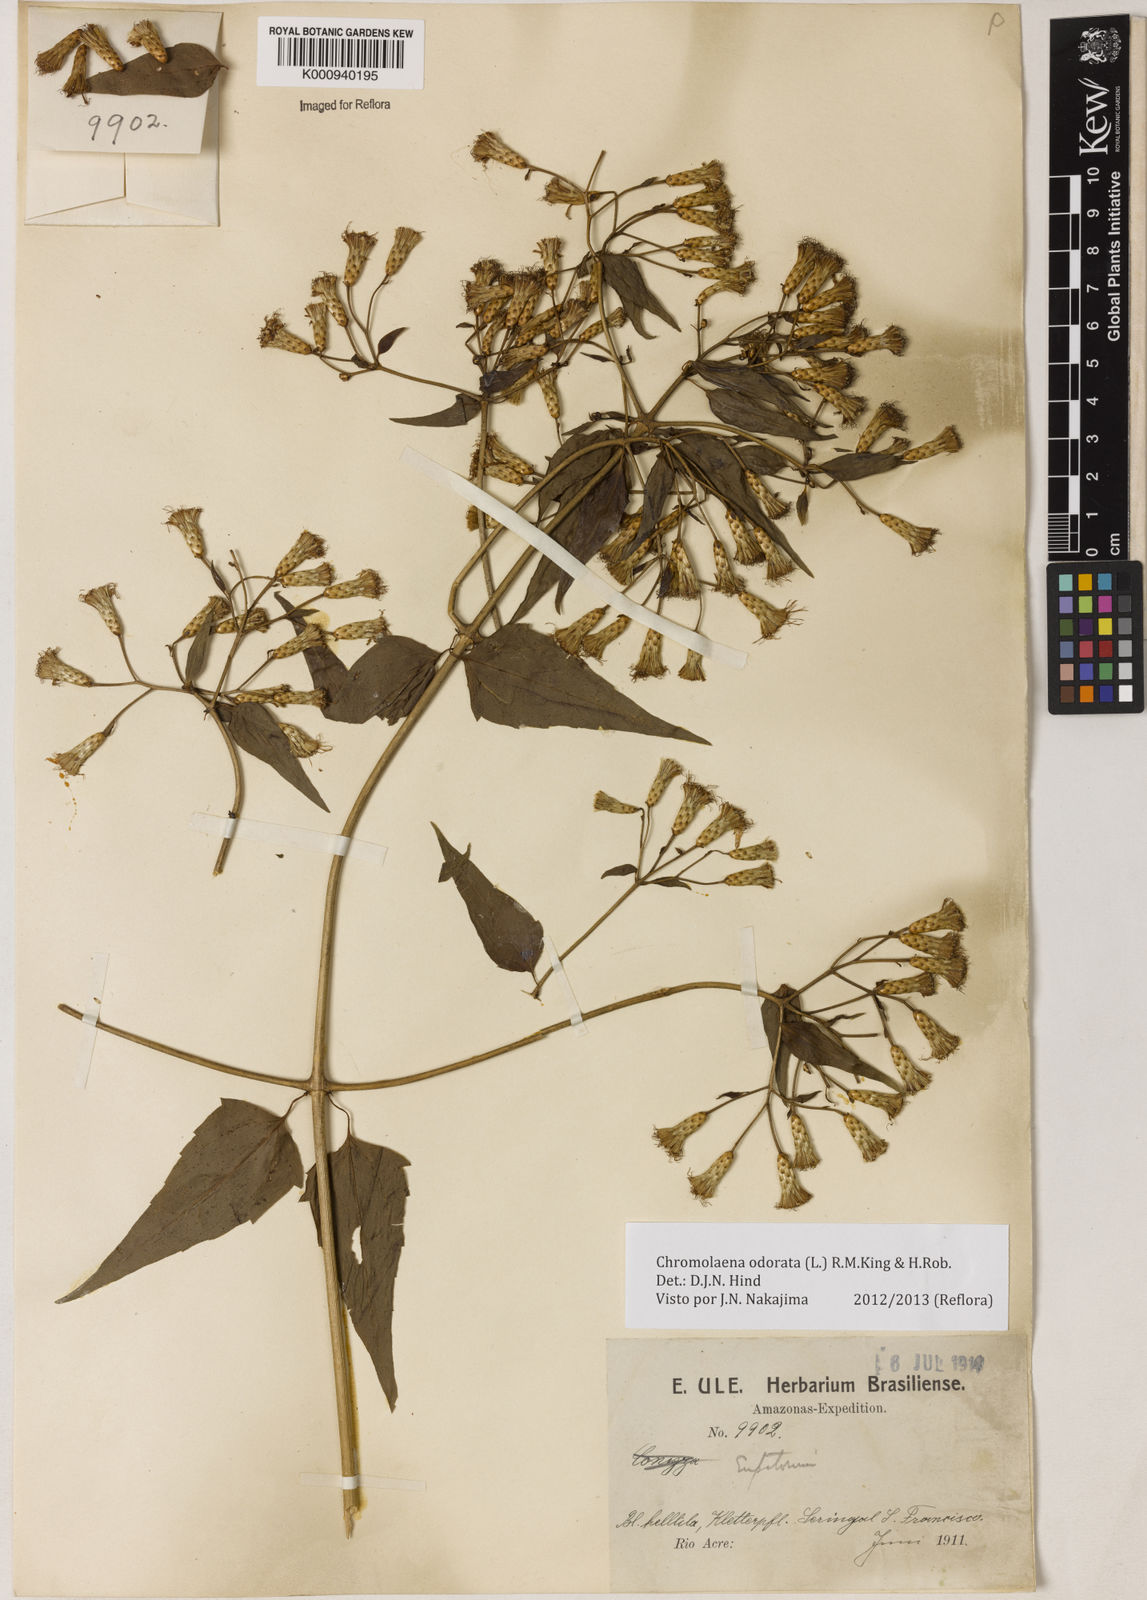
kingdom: Plantae
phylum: Tracheophyta
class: Magnoliopsida
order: Asterales
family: Asteraceae
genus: Chromolaena
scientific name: Chromolaena odorata
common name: Siamweed
